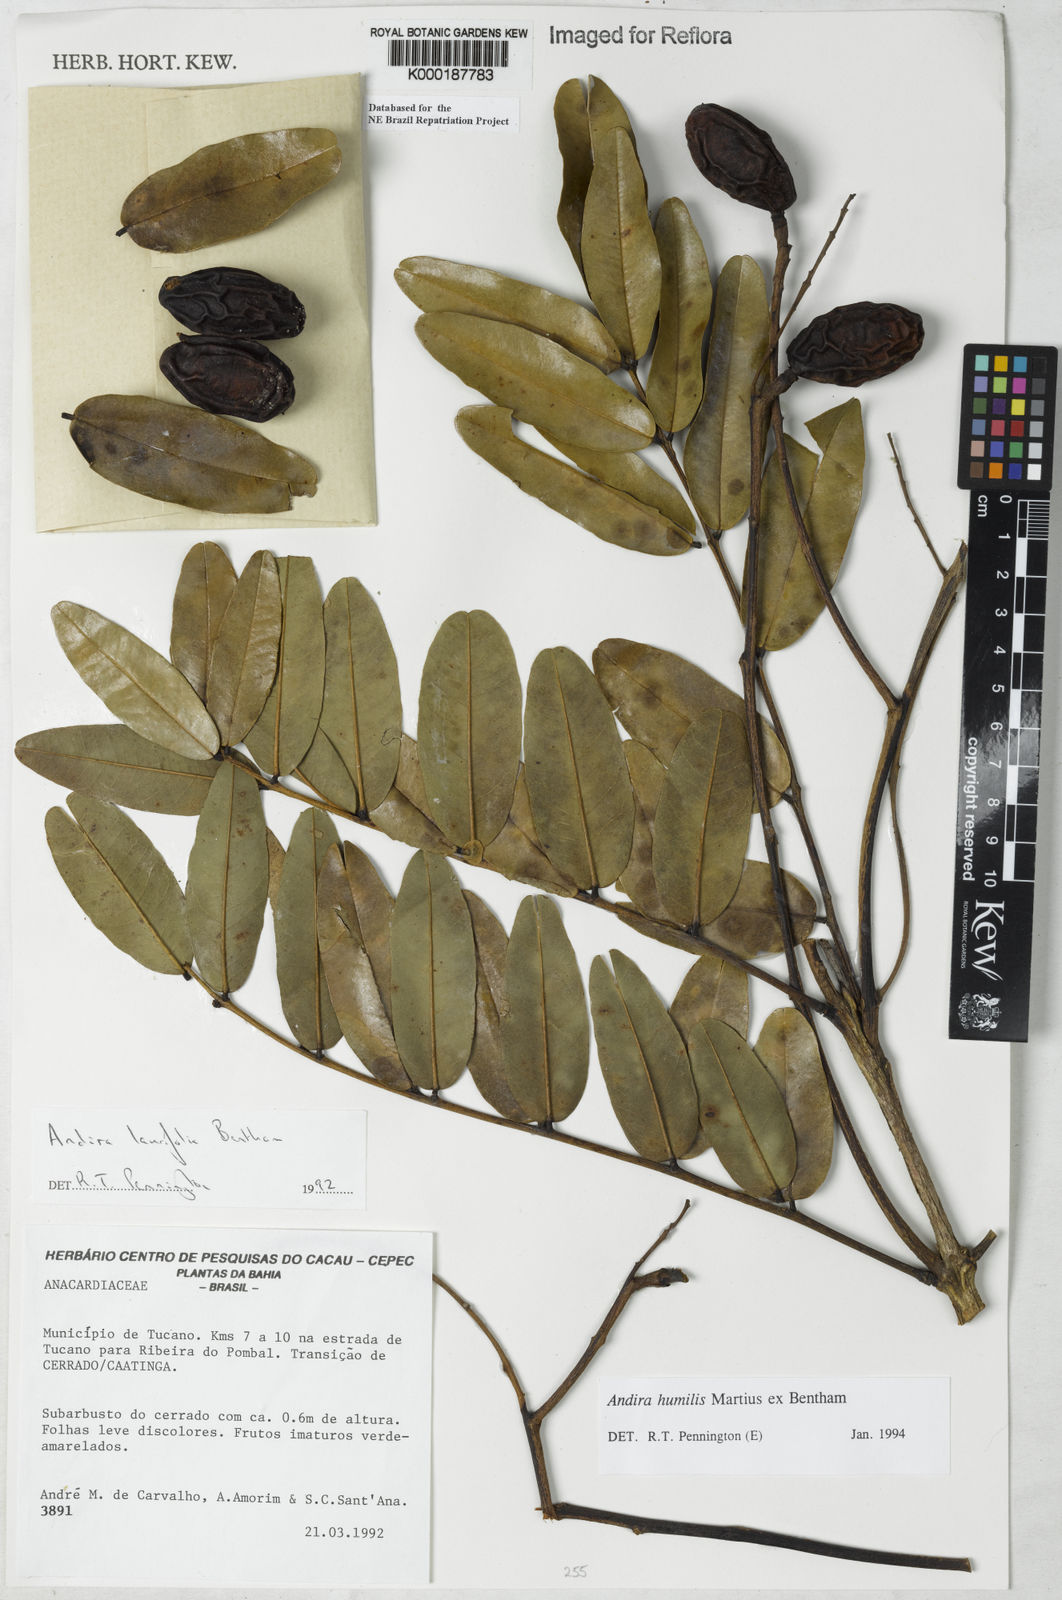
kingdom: Plantae
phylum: Tracheophyta
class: Magnoliopsida
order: Fabales
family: Fabaceae
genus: Andira
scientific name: Andira humilis
